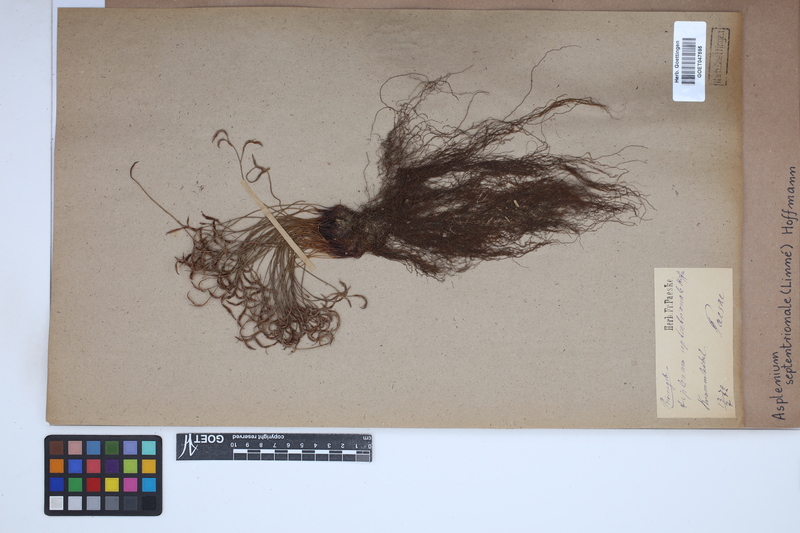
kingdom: Plantae
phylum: Tracheophyta
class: Polypodiopsida
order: Polypodiales
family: Aspleniaceae
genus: Asplenium
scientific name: Asplenium septentrionale
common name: Forked spleenwort
